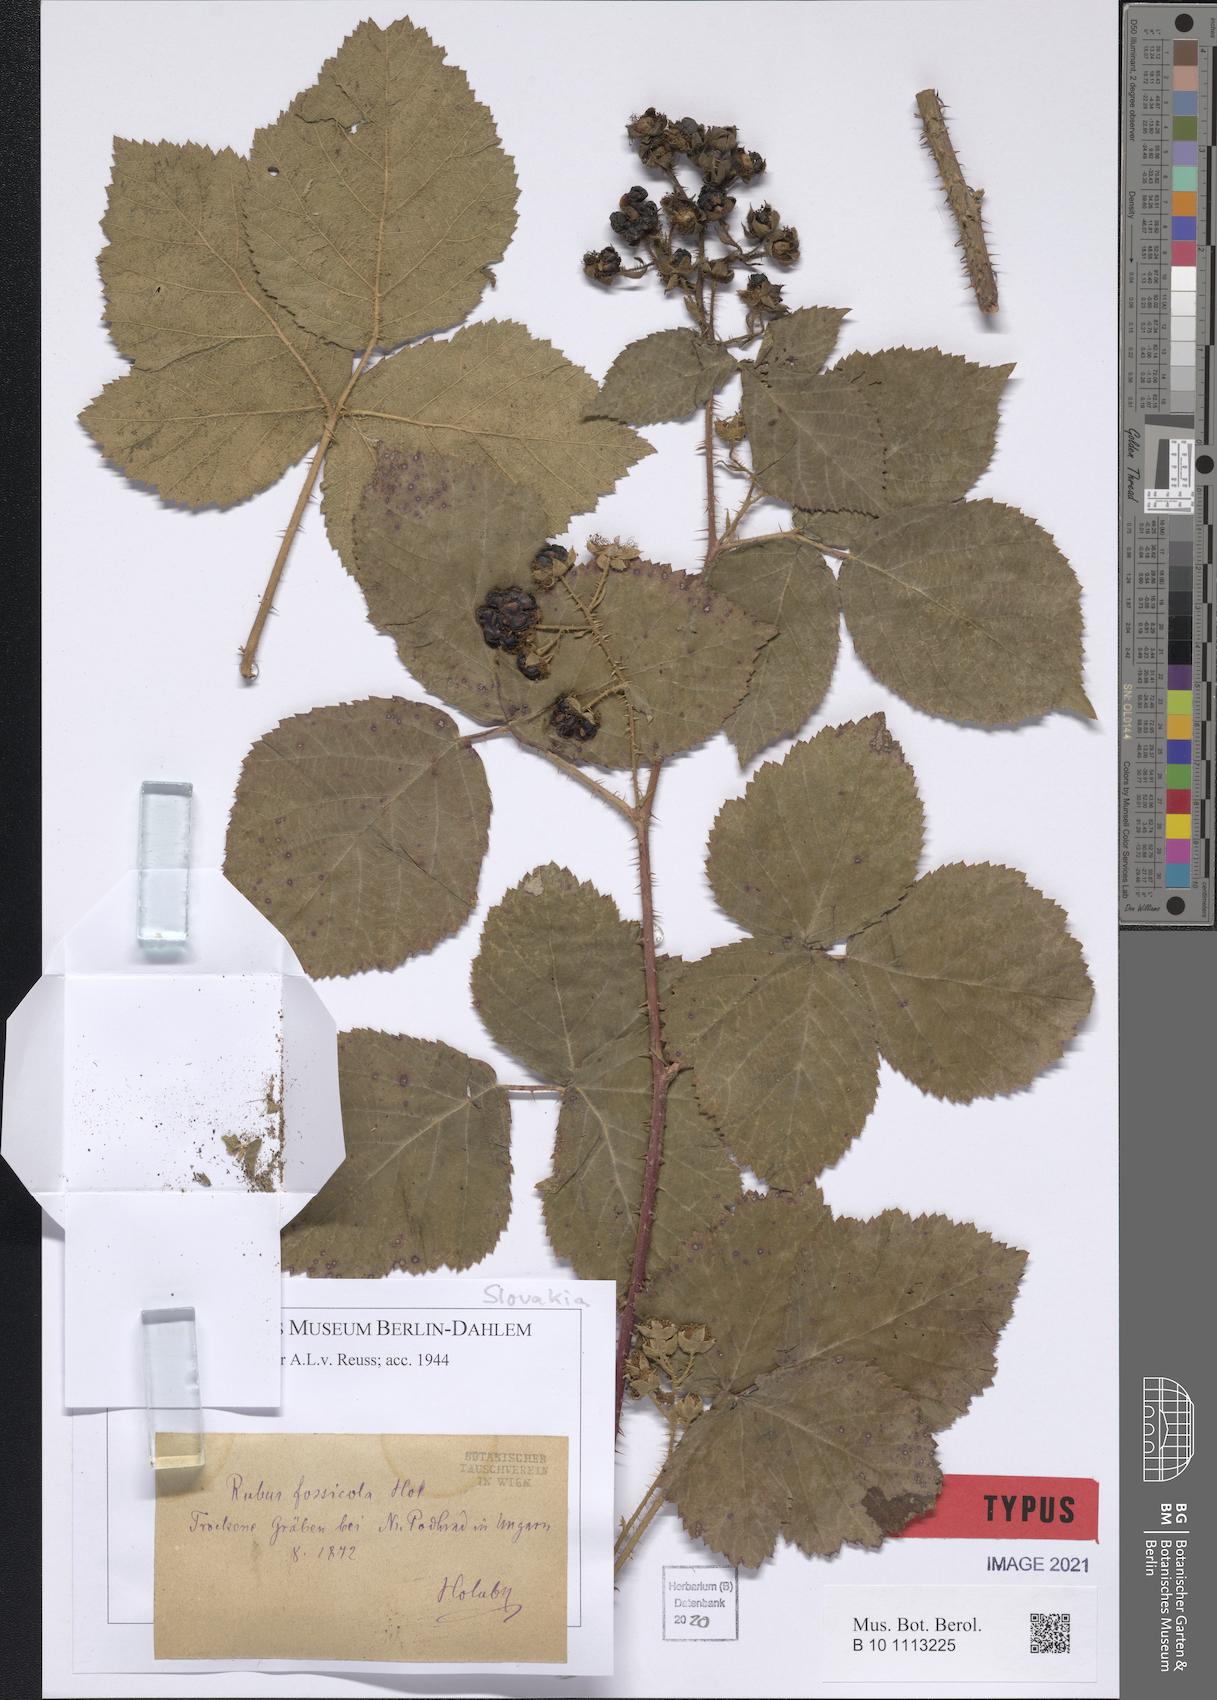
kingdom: Plantae
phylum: Tracheophyta
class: Magnoliopsida
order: Rosales
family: Rosaceae
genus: Rubus
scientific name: Rubus fossicola
